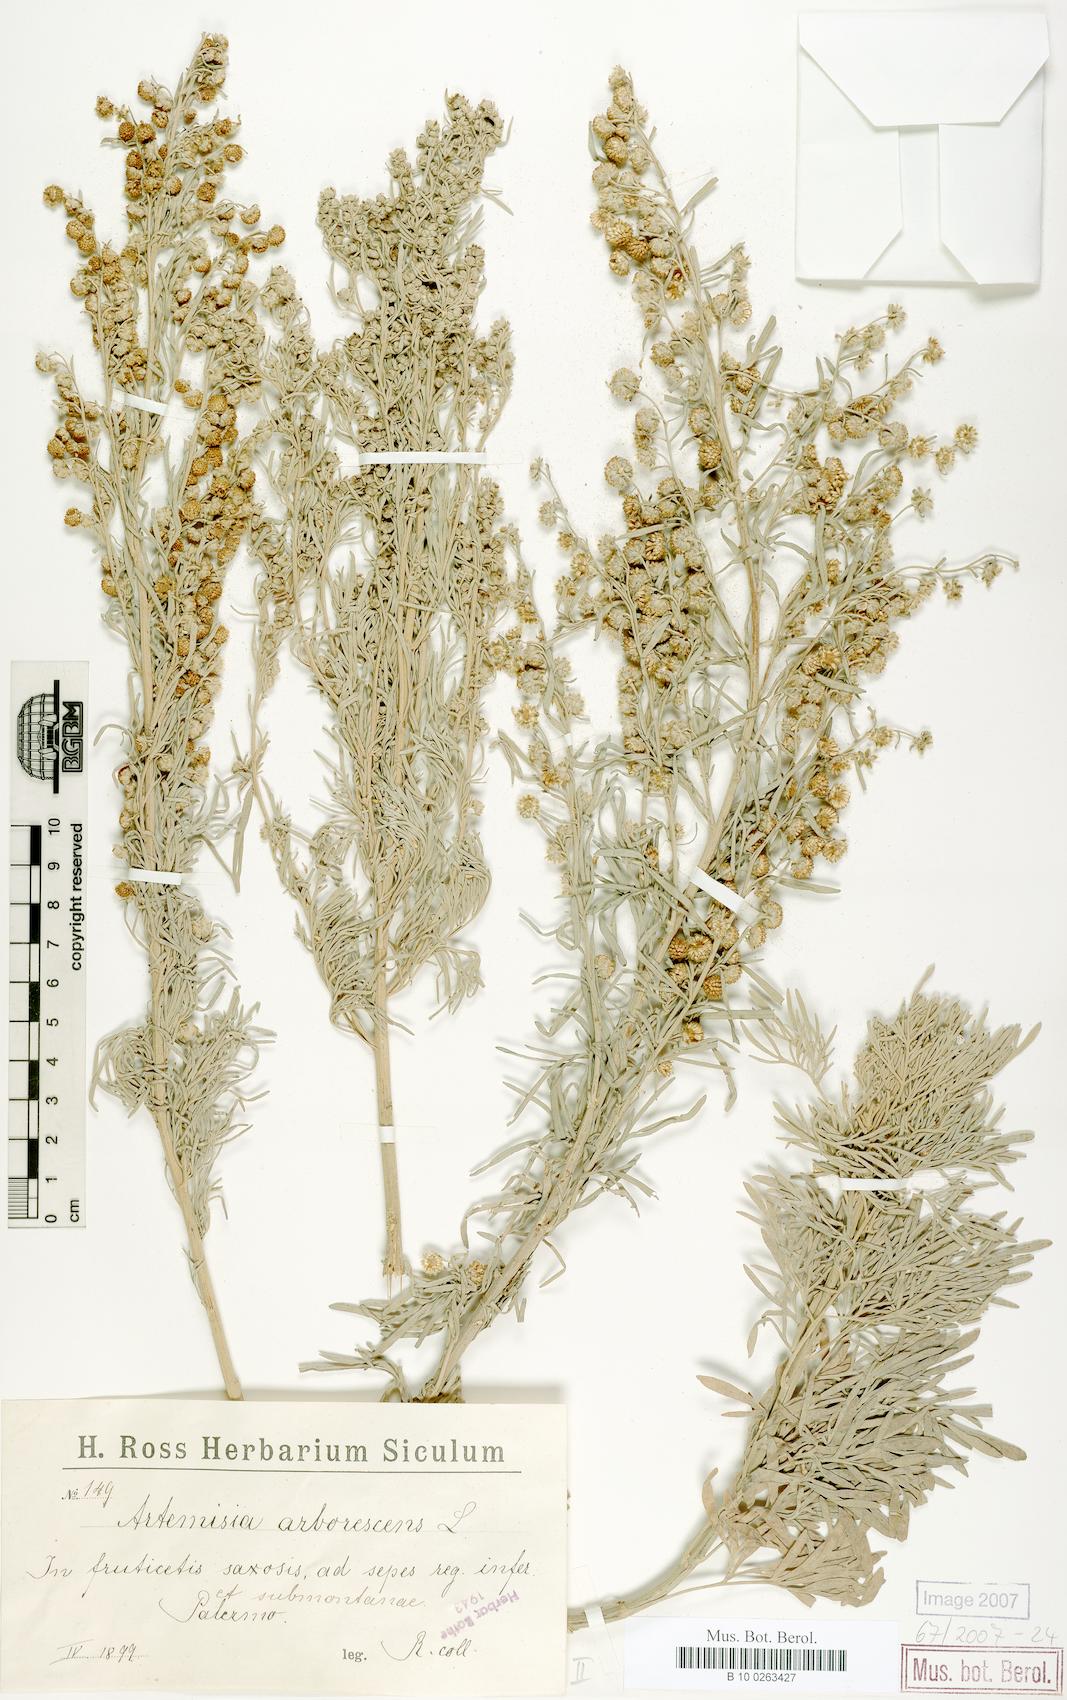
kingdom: Plantae
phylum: Tracheophyta
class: Magnoliopsida
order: Asterales
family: Asteraceae
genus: Artemisia
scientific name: Artemisia arborescens
